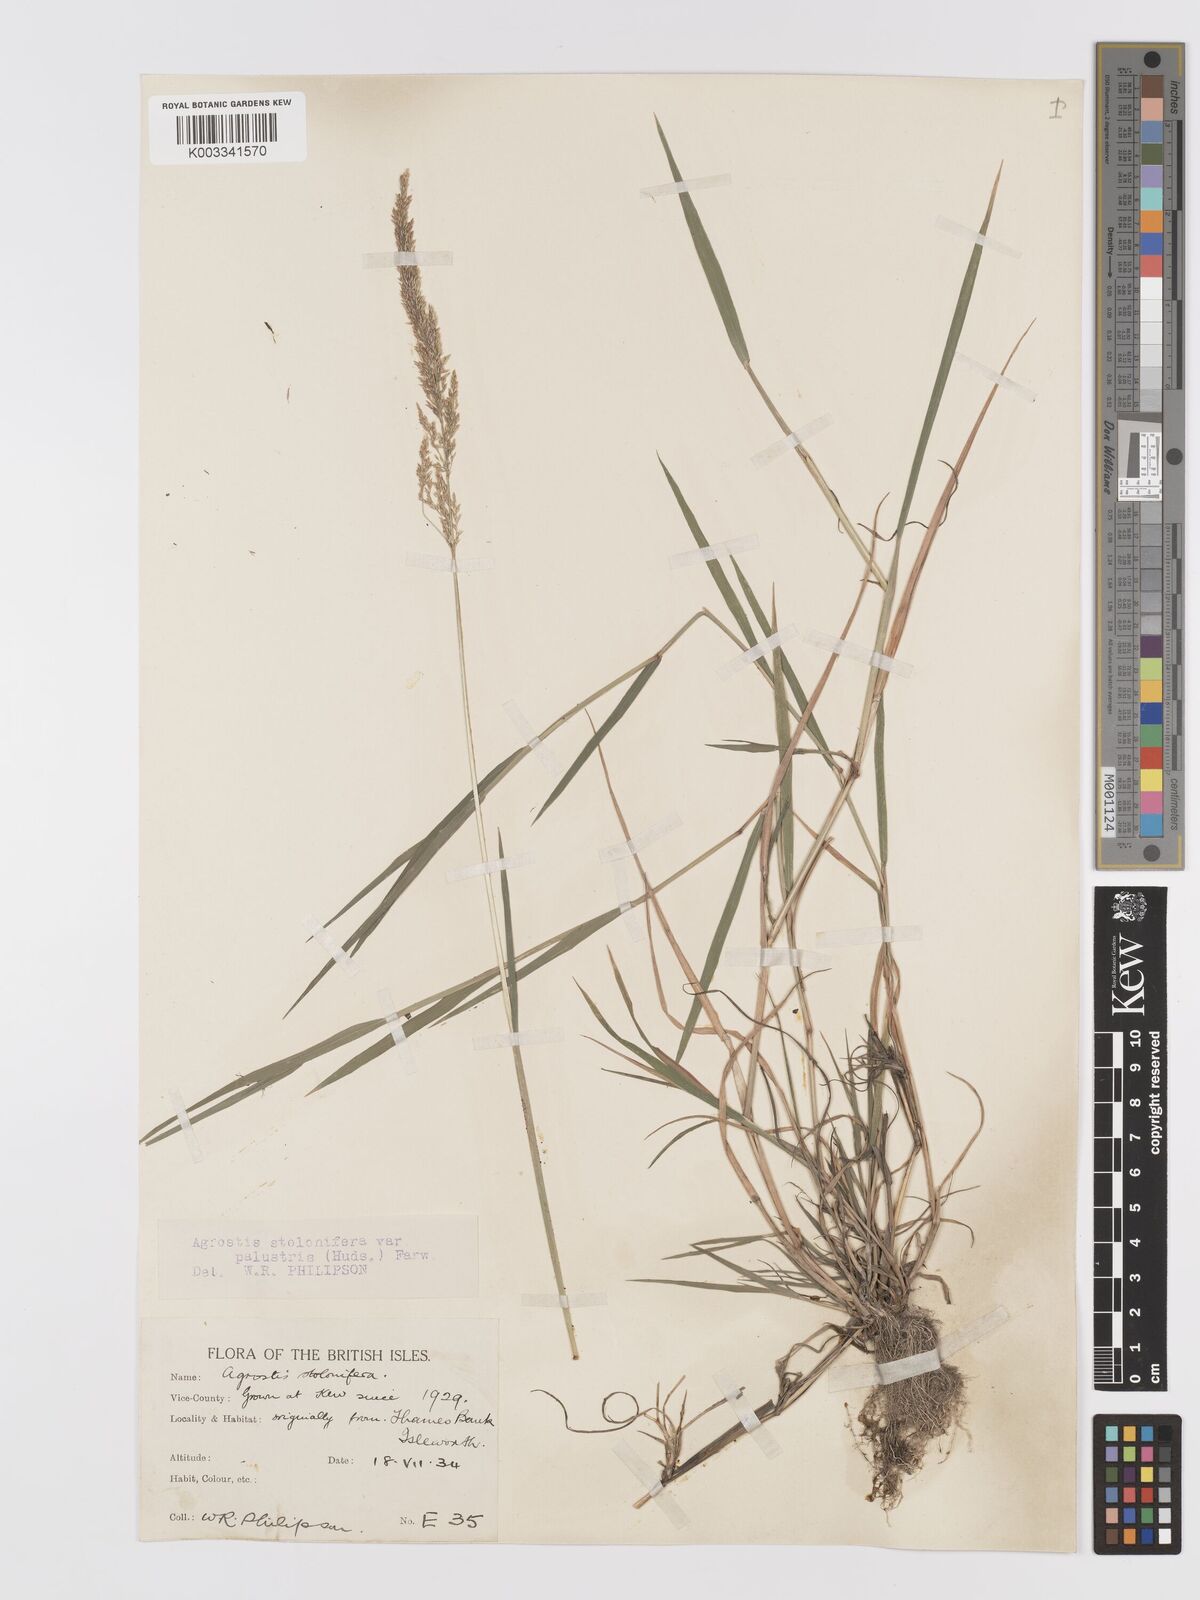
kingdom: Plantae
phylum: Tracheophyta
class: Liliopsida
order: Poales
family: Poaceae
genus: Agrostis
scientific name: Agrostis stolonifera
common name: Creeping bentgrass
